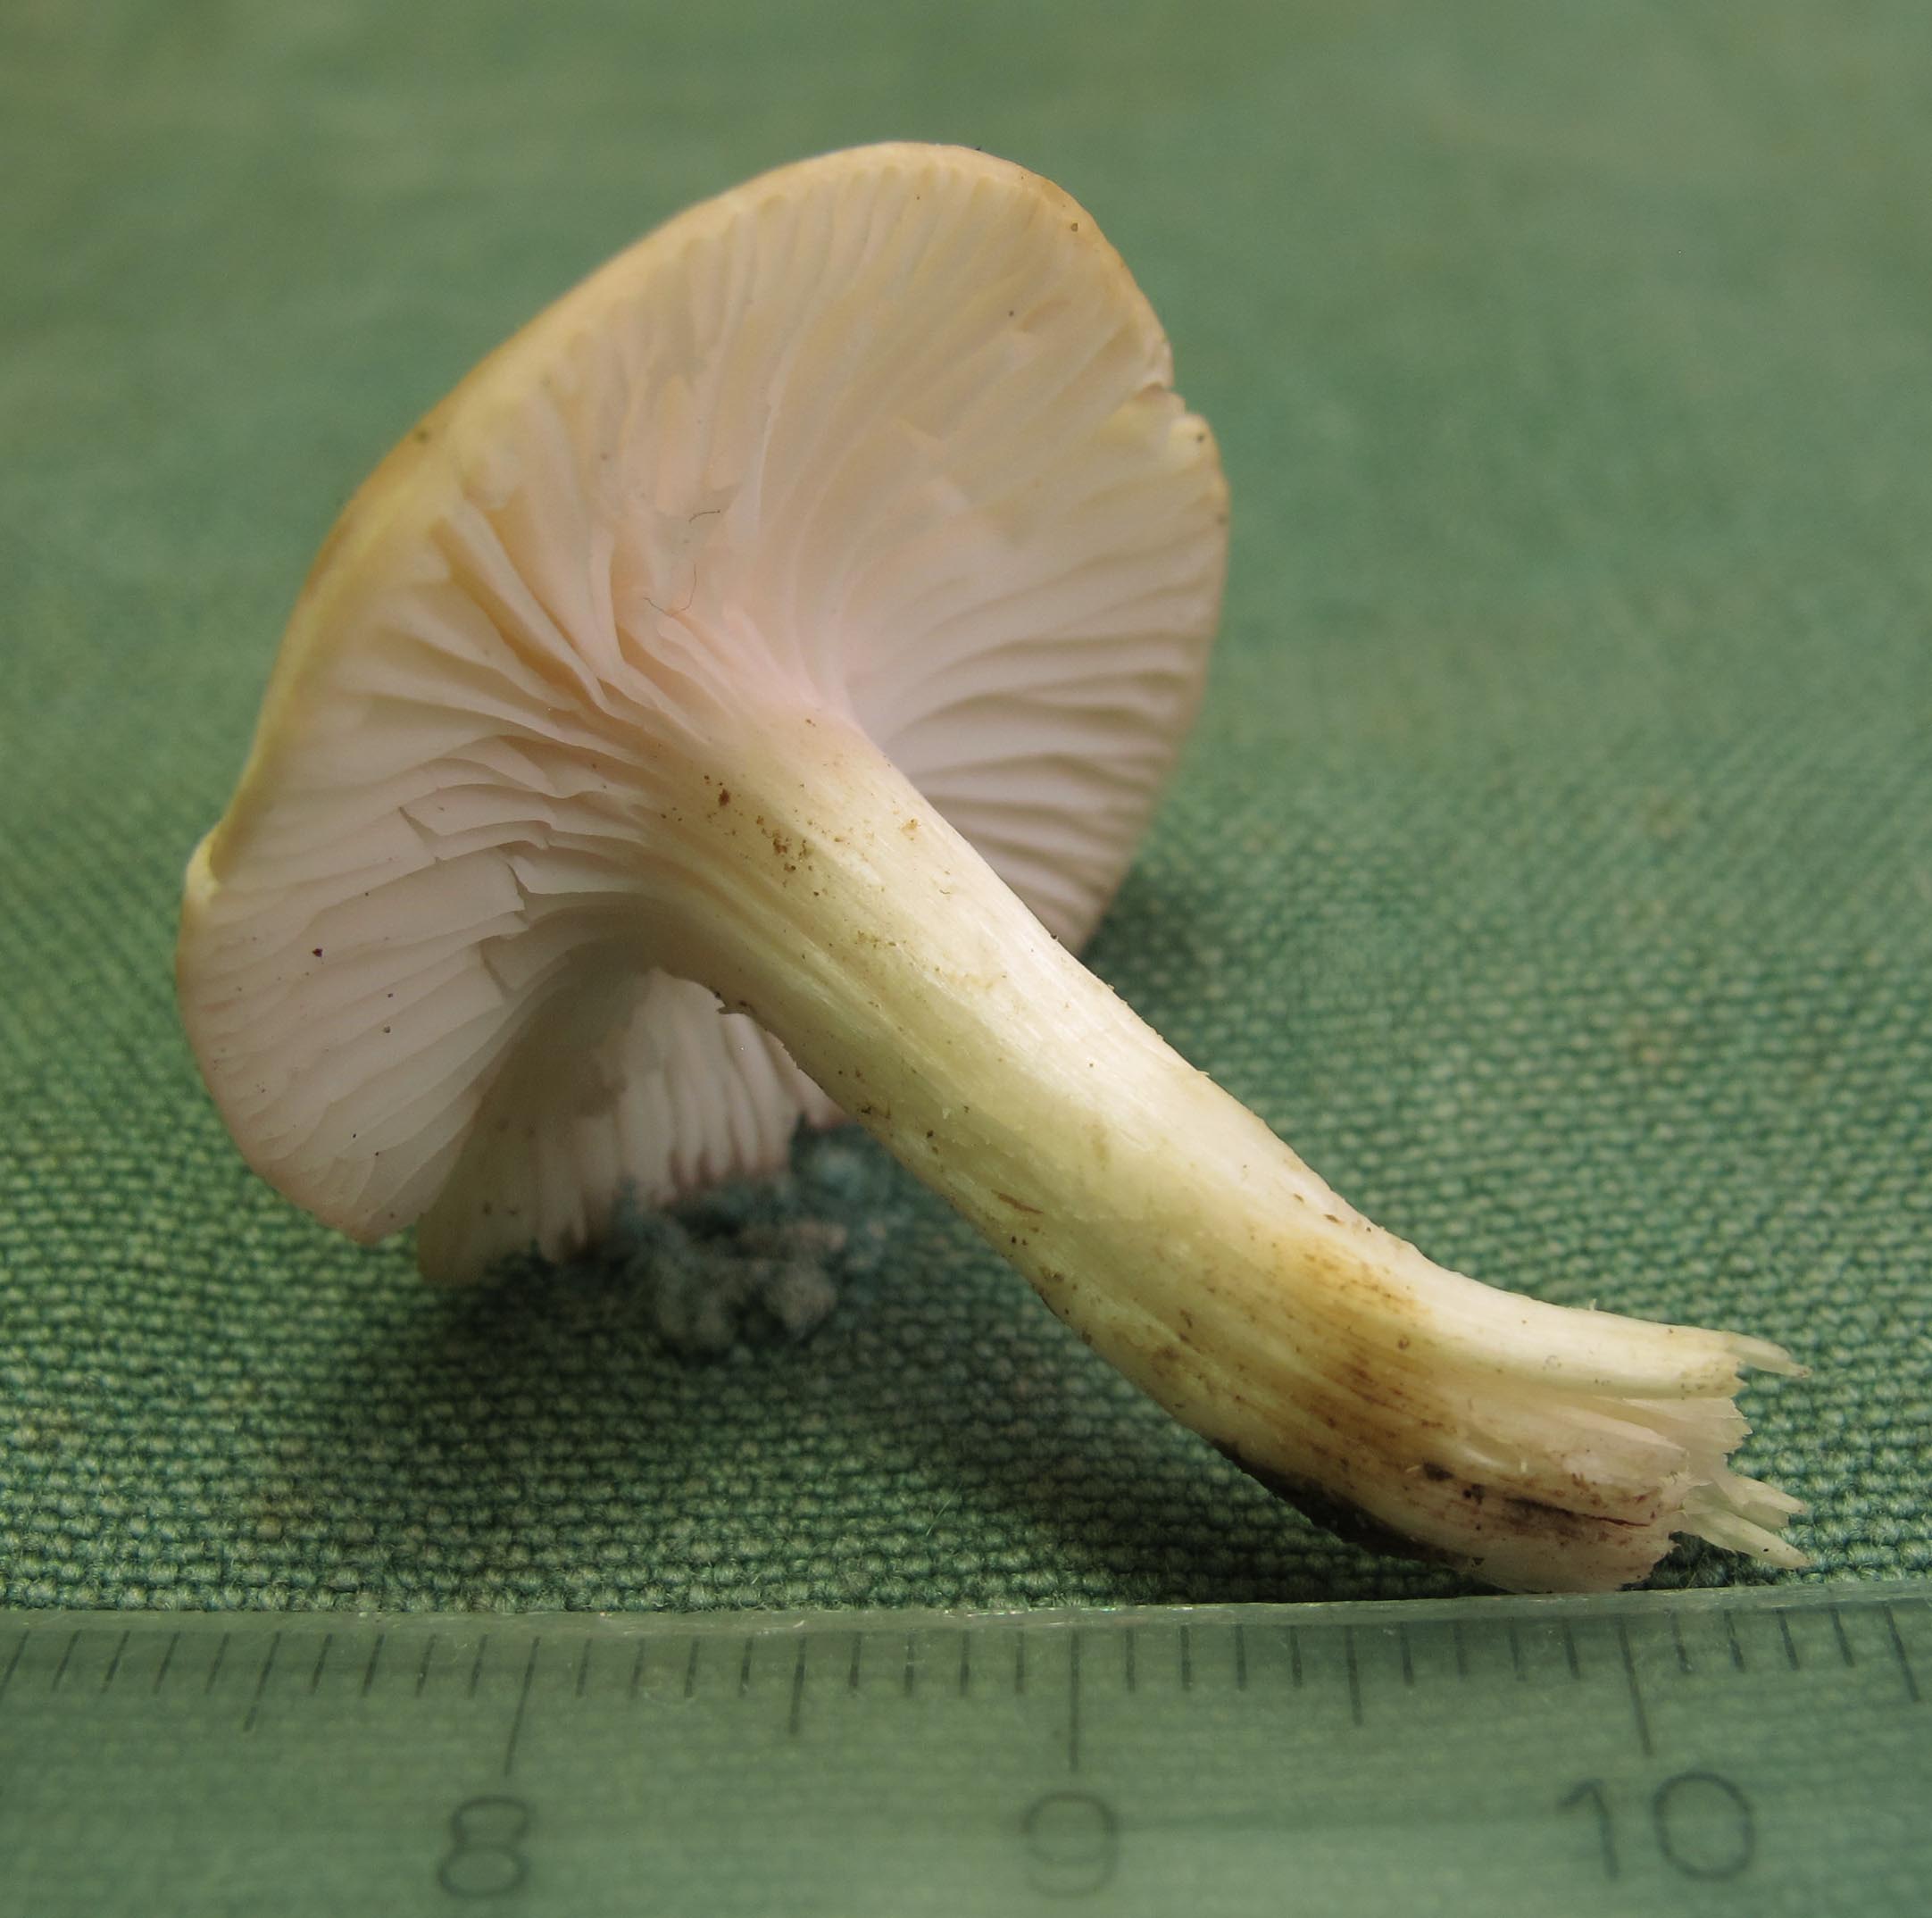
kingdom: Fungi
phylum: Basidiomycota
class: Agaricomycetes
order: Agaricales
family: Hygrophoraceae
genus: Cuphophyllus
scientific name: Cuphophyllus
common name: vokshat
